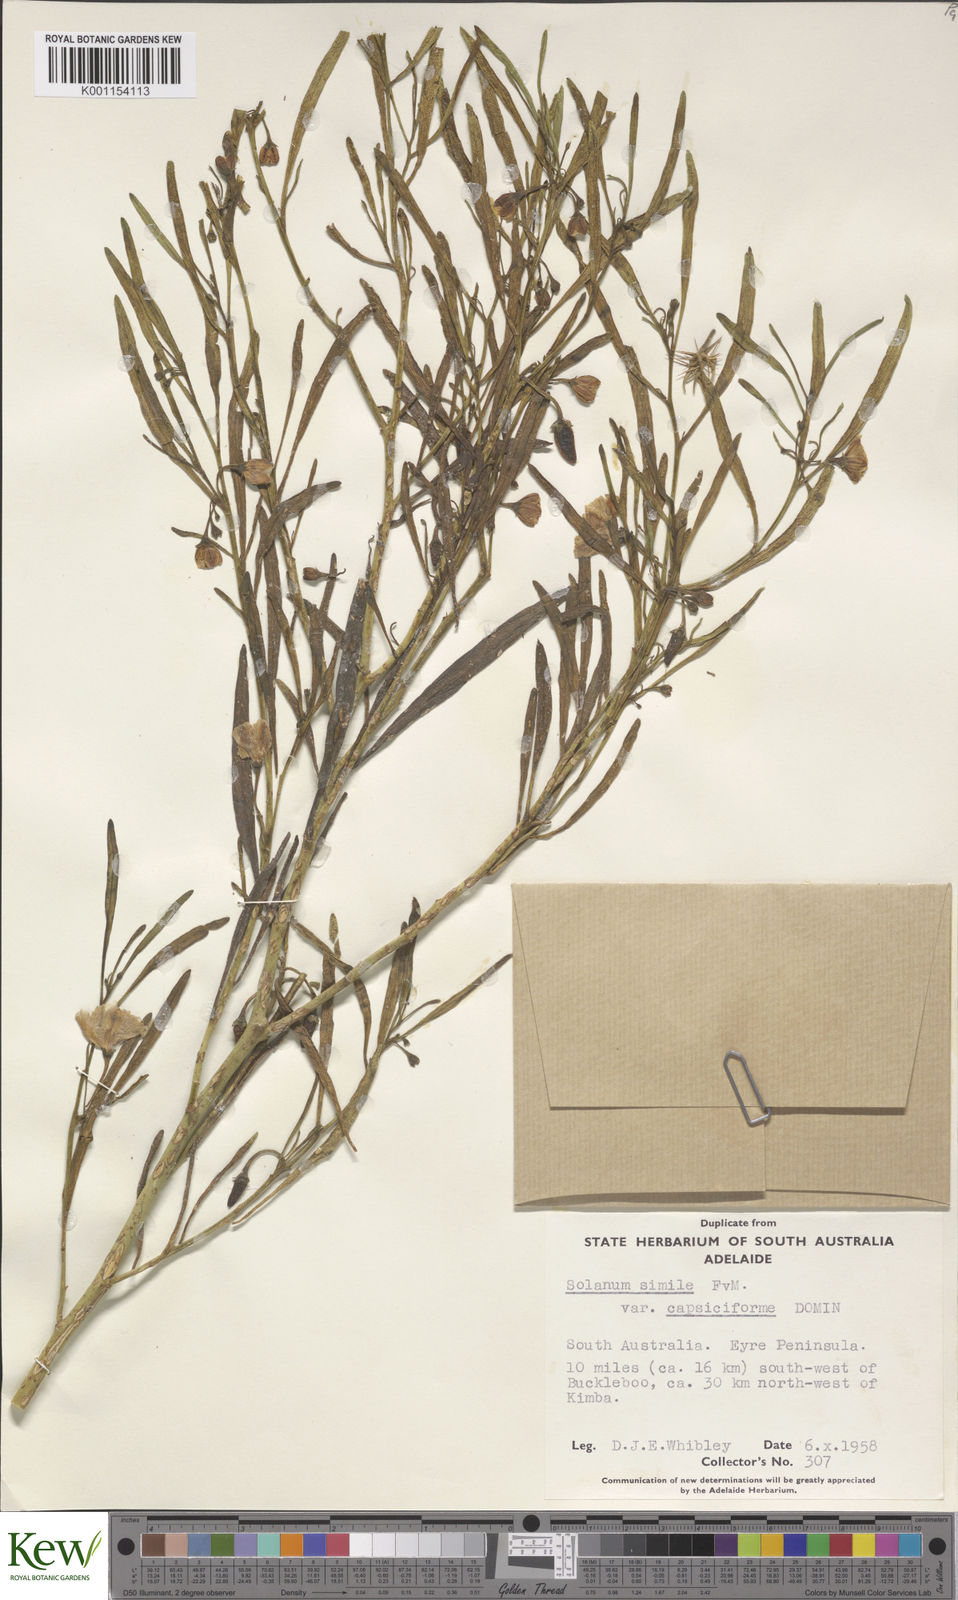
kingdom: Plantae
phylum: Tracheophyta
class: Magnoliopsida
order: Solanales
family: Solanaceae
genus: Solanum
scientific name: Solanum
